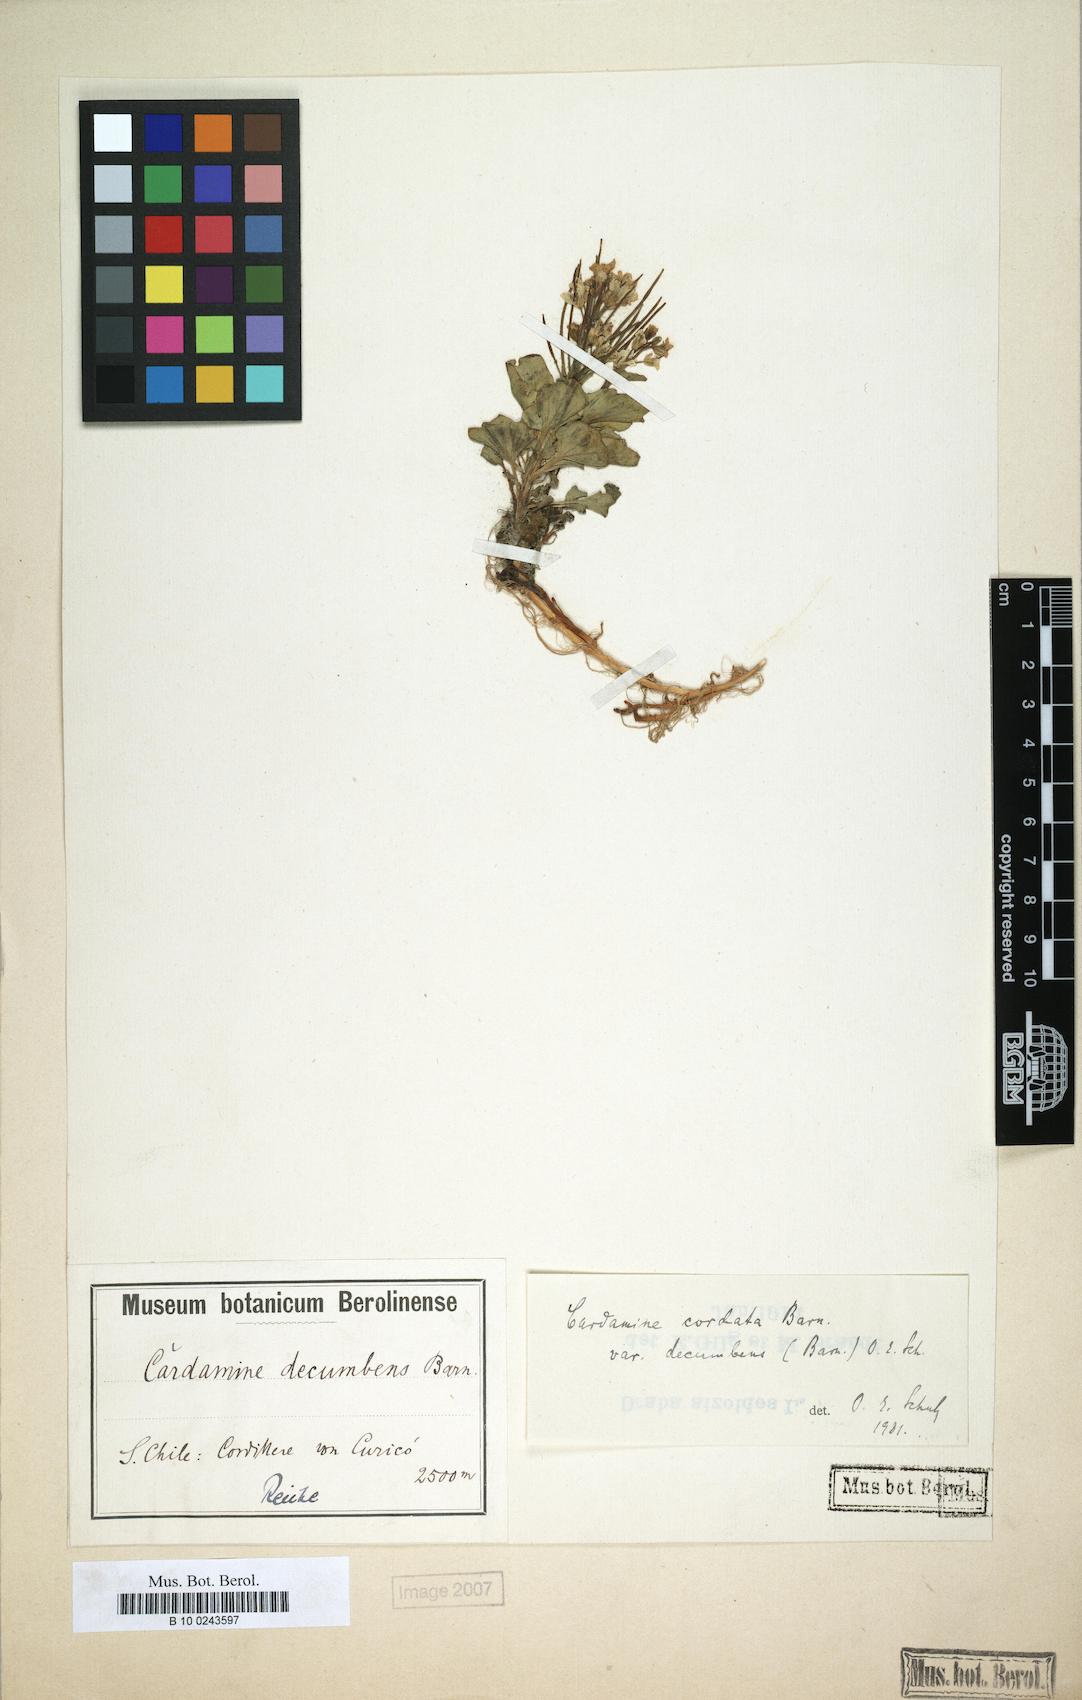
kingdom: Plantae
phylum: Tracheophyta
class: Magnoliopsida
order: Brassicales
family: Brassicaceae
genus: Cardamine
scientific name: Cardamine decumbens
